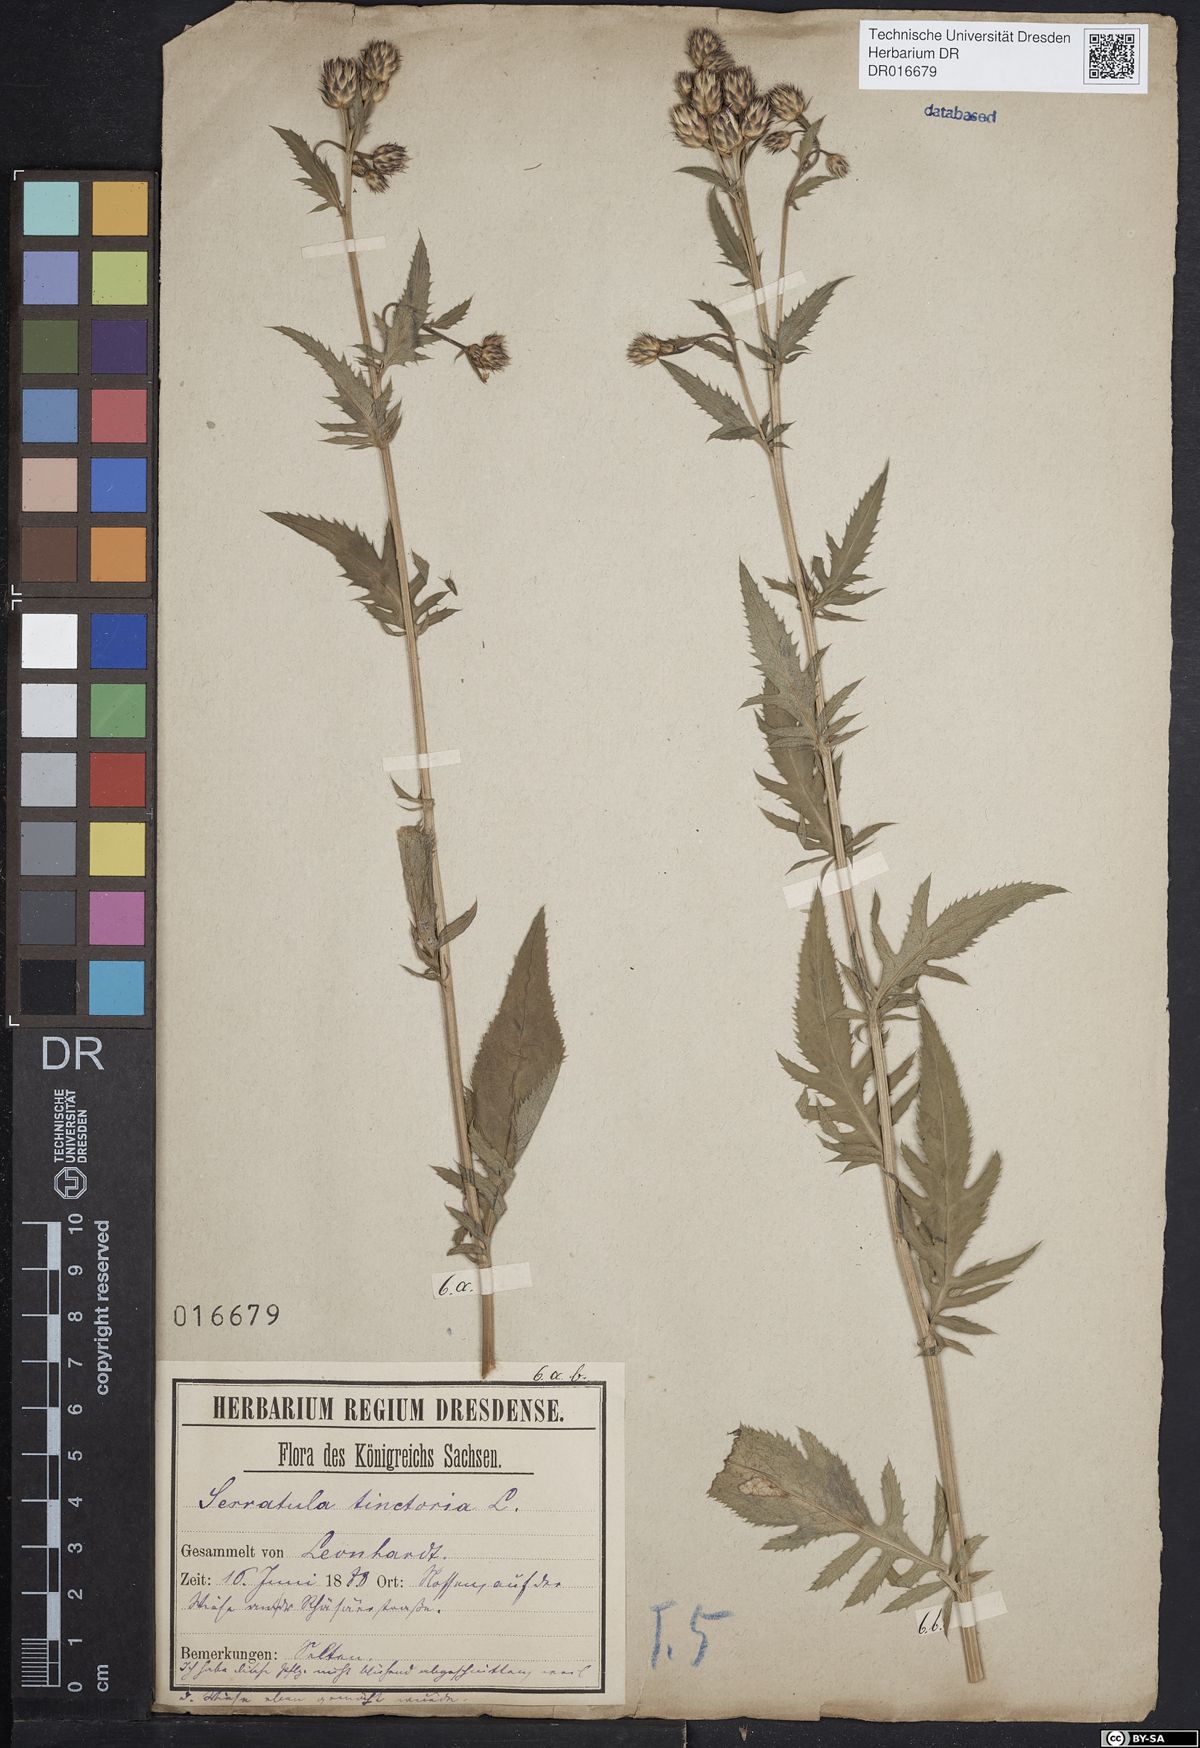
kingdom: Plantae
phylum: Tracheophyta
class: Magnoliopsida
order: Asterales
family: Asteraceae
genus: Serratula
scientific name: Serratula tinctoria
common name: Saw-wort
